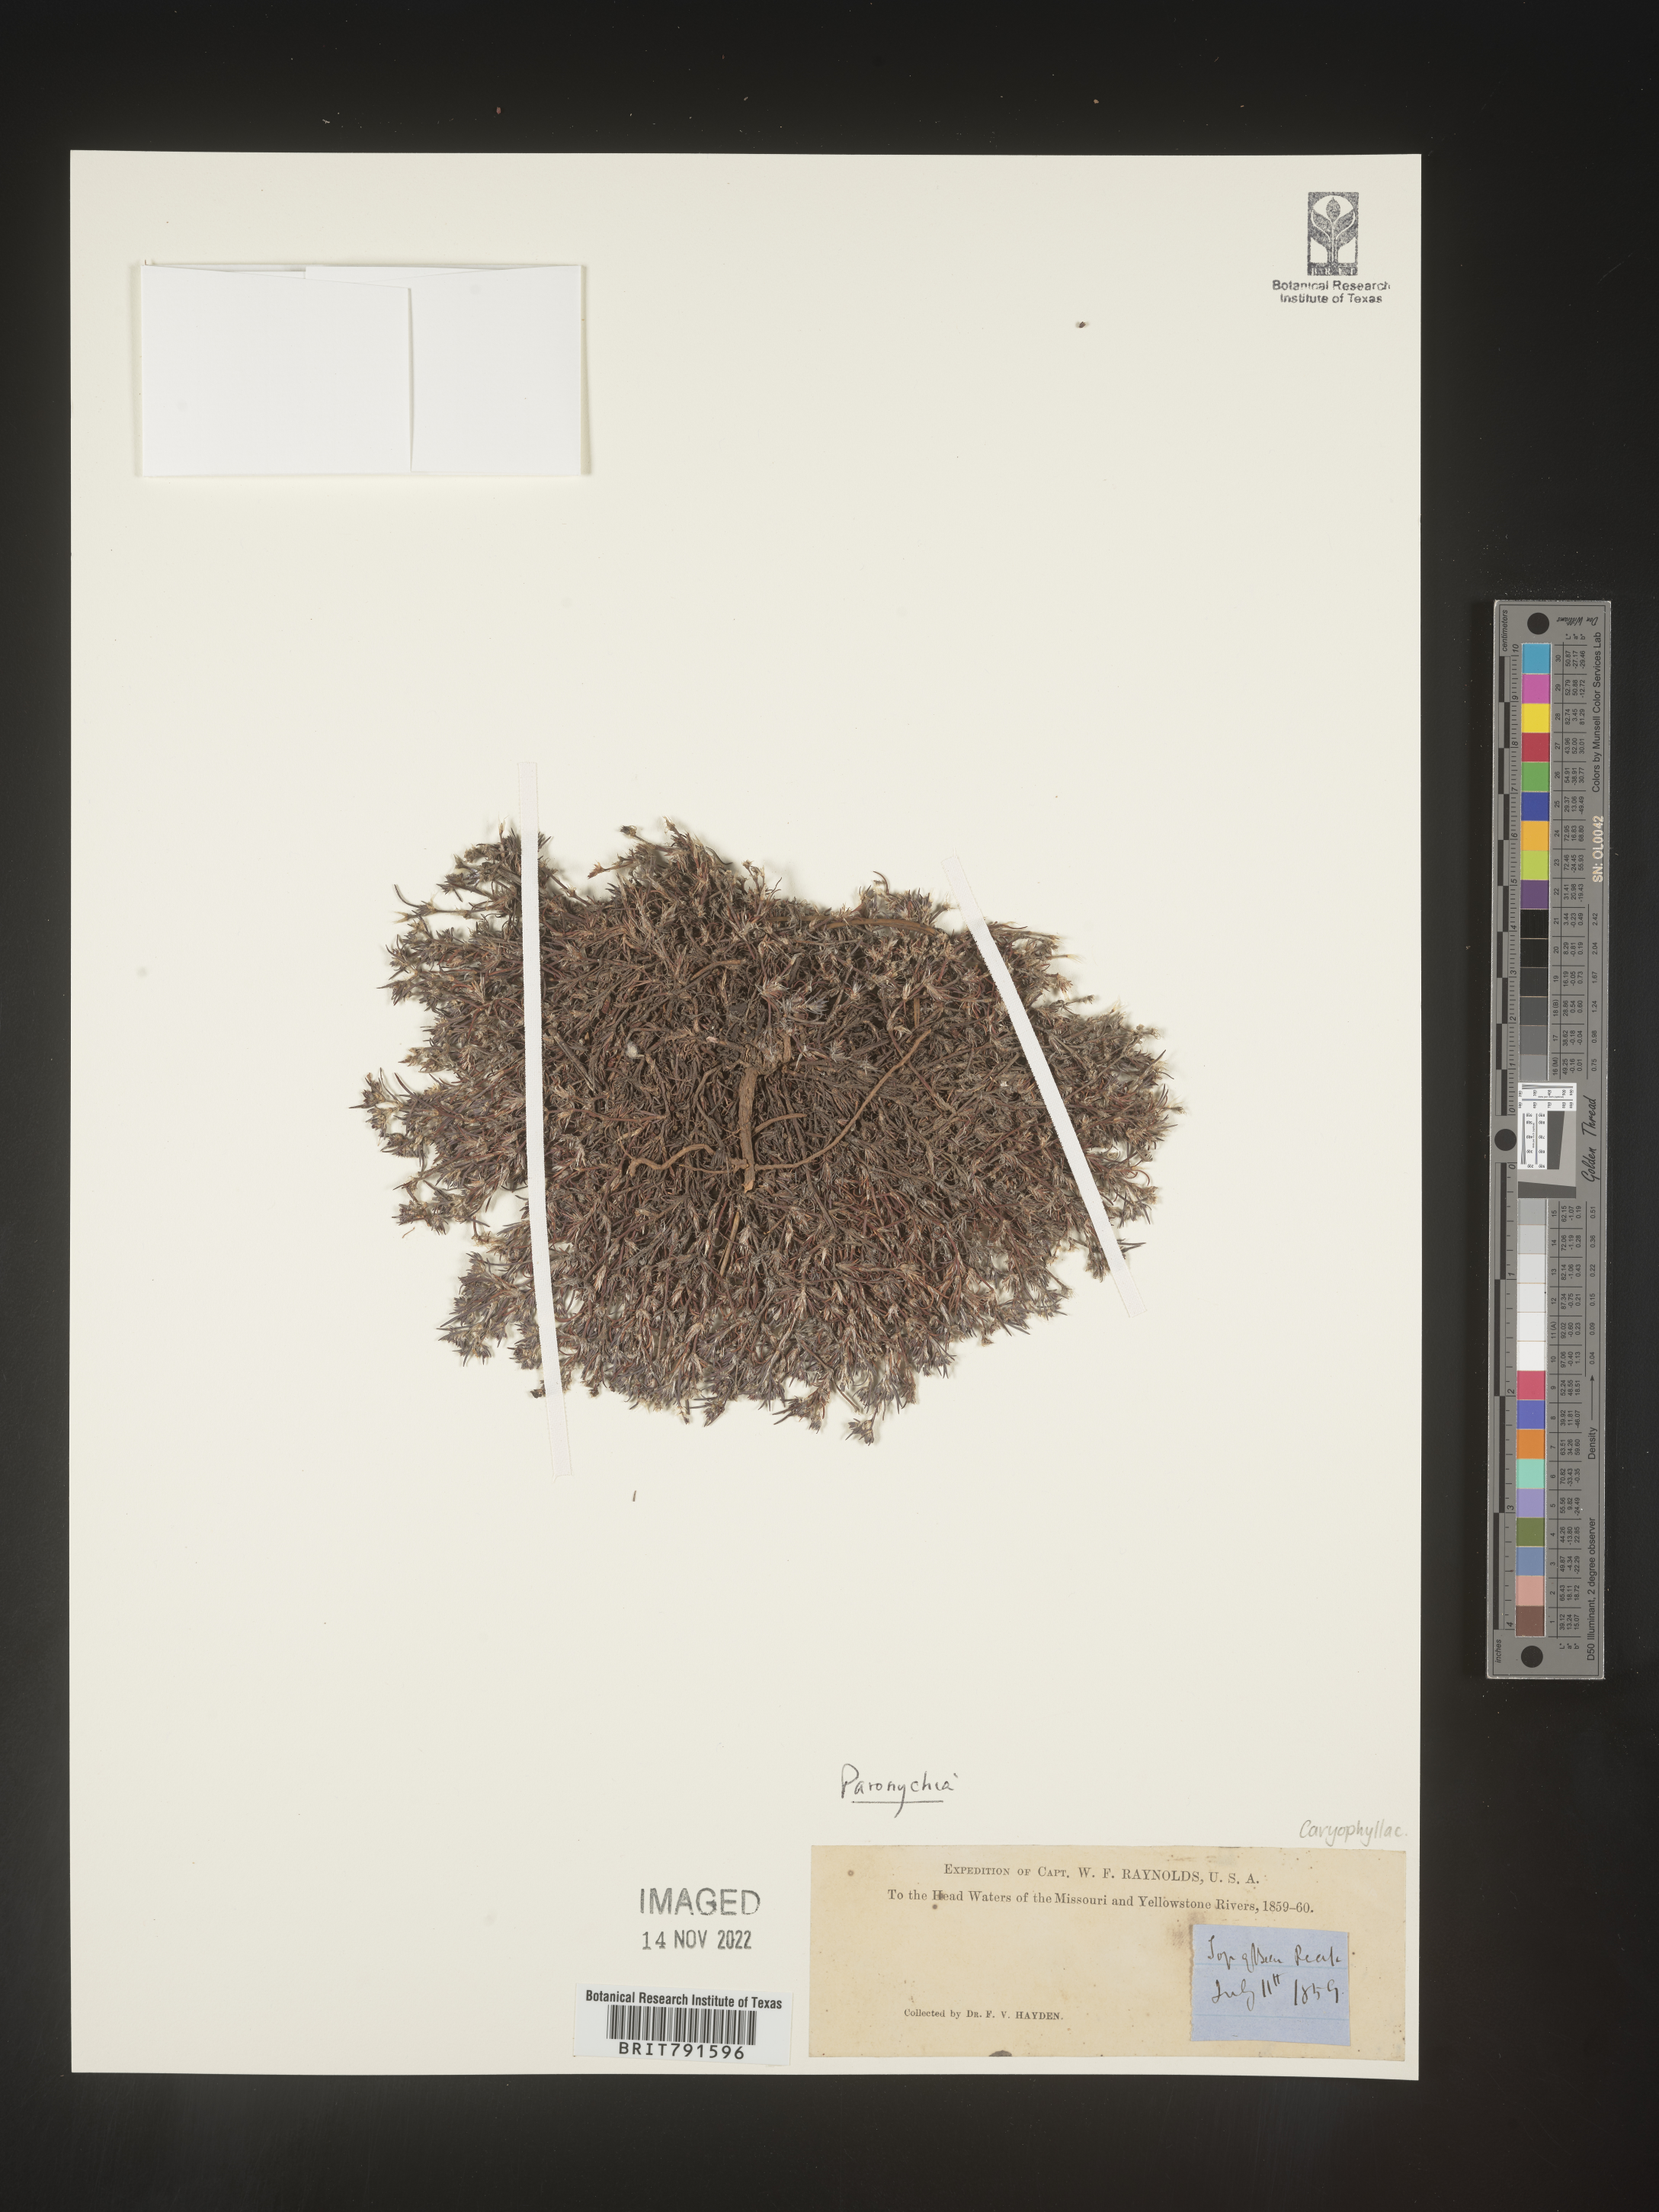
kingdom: Plantae
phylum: Tracheophyta
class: Magnoliopsida
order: Caryophyllales
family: Caryophyllaceae
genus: Paronychia
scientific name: Paronychia
